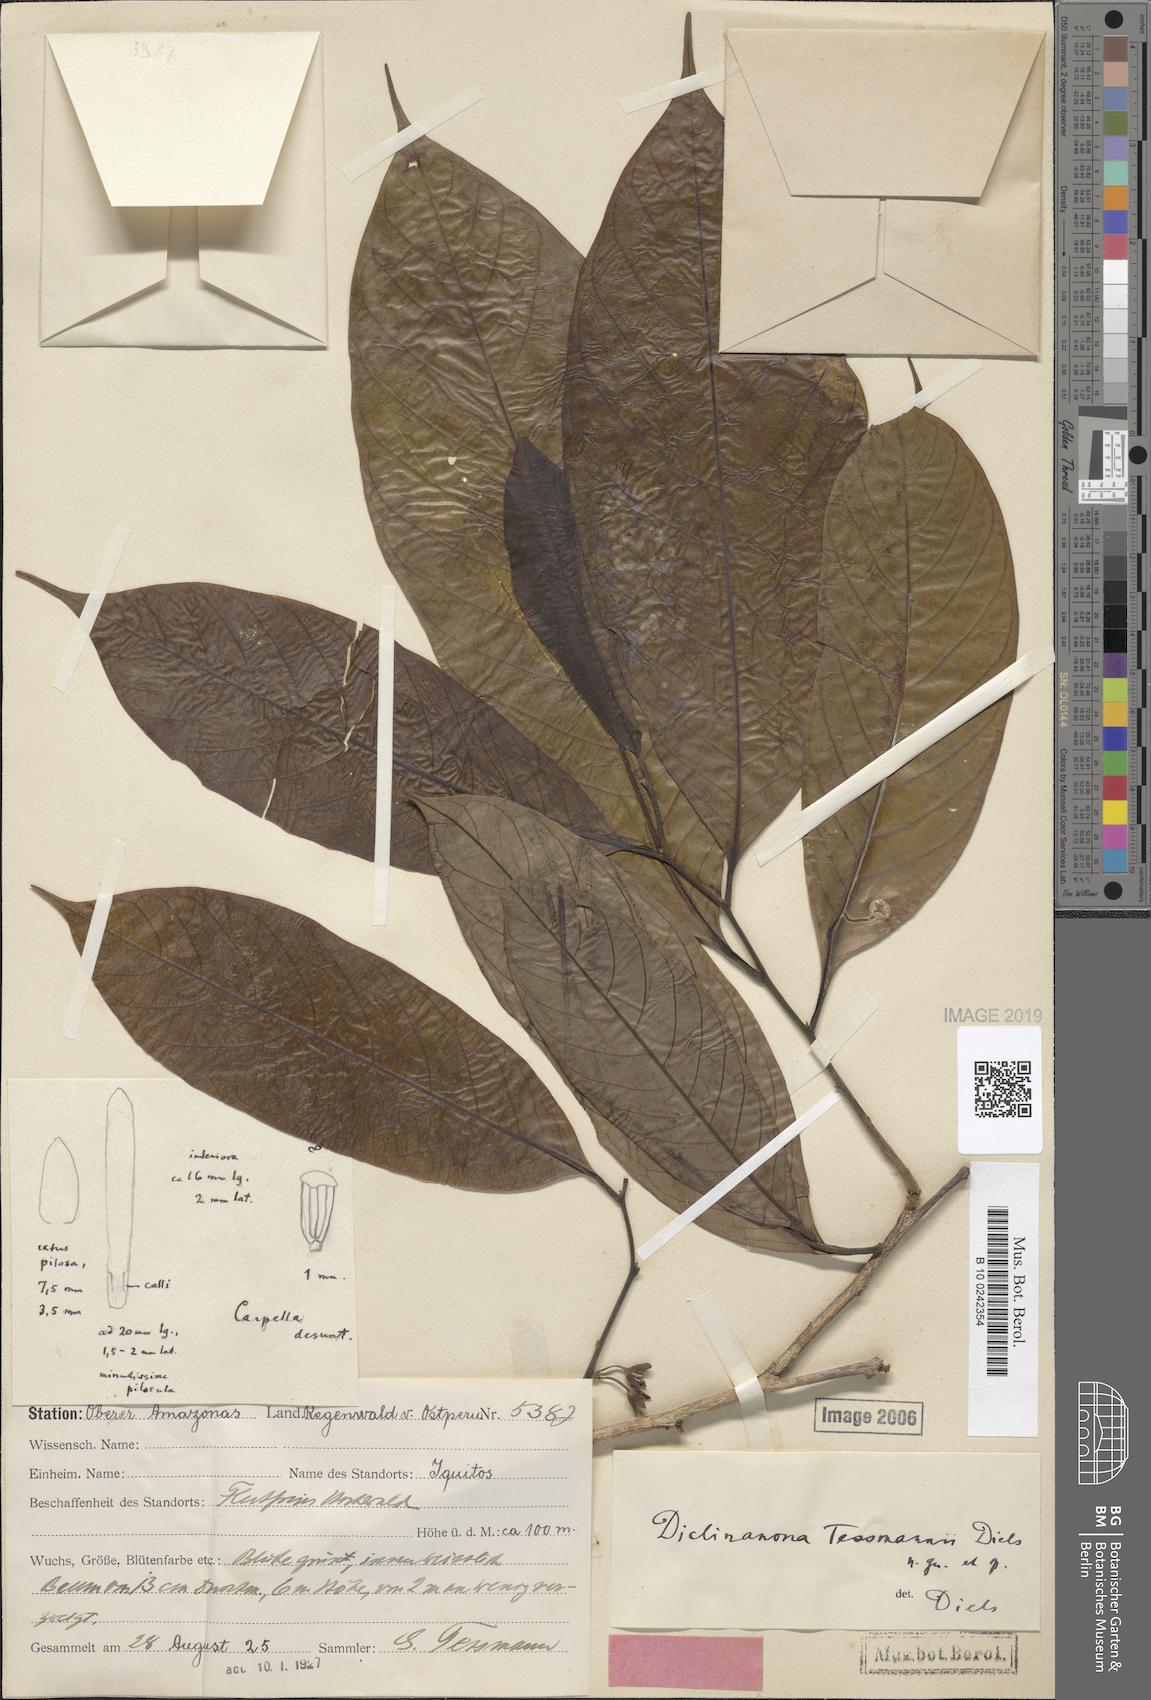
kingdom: Plantae
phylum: Tracheophyta
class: Magnoliopsida
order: Magnoliales
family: Annonaceae
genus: Diclinanona
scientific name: Diclinanona tessmannii
